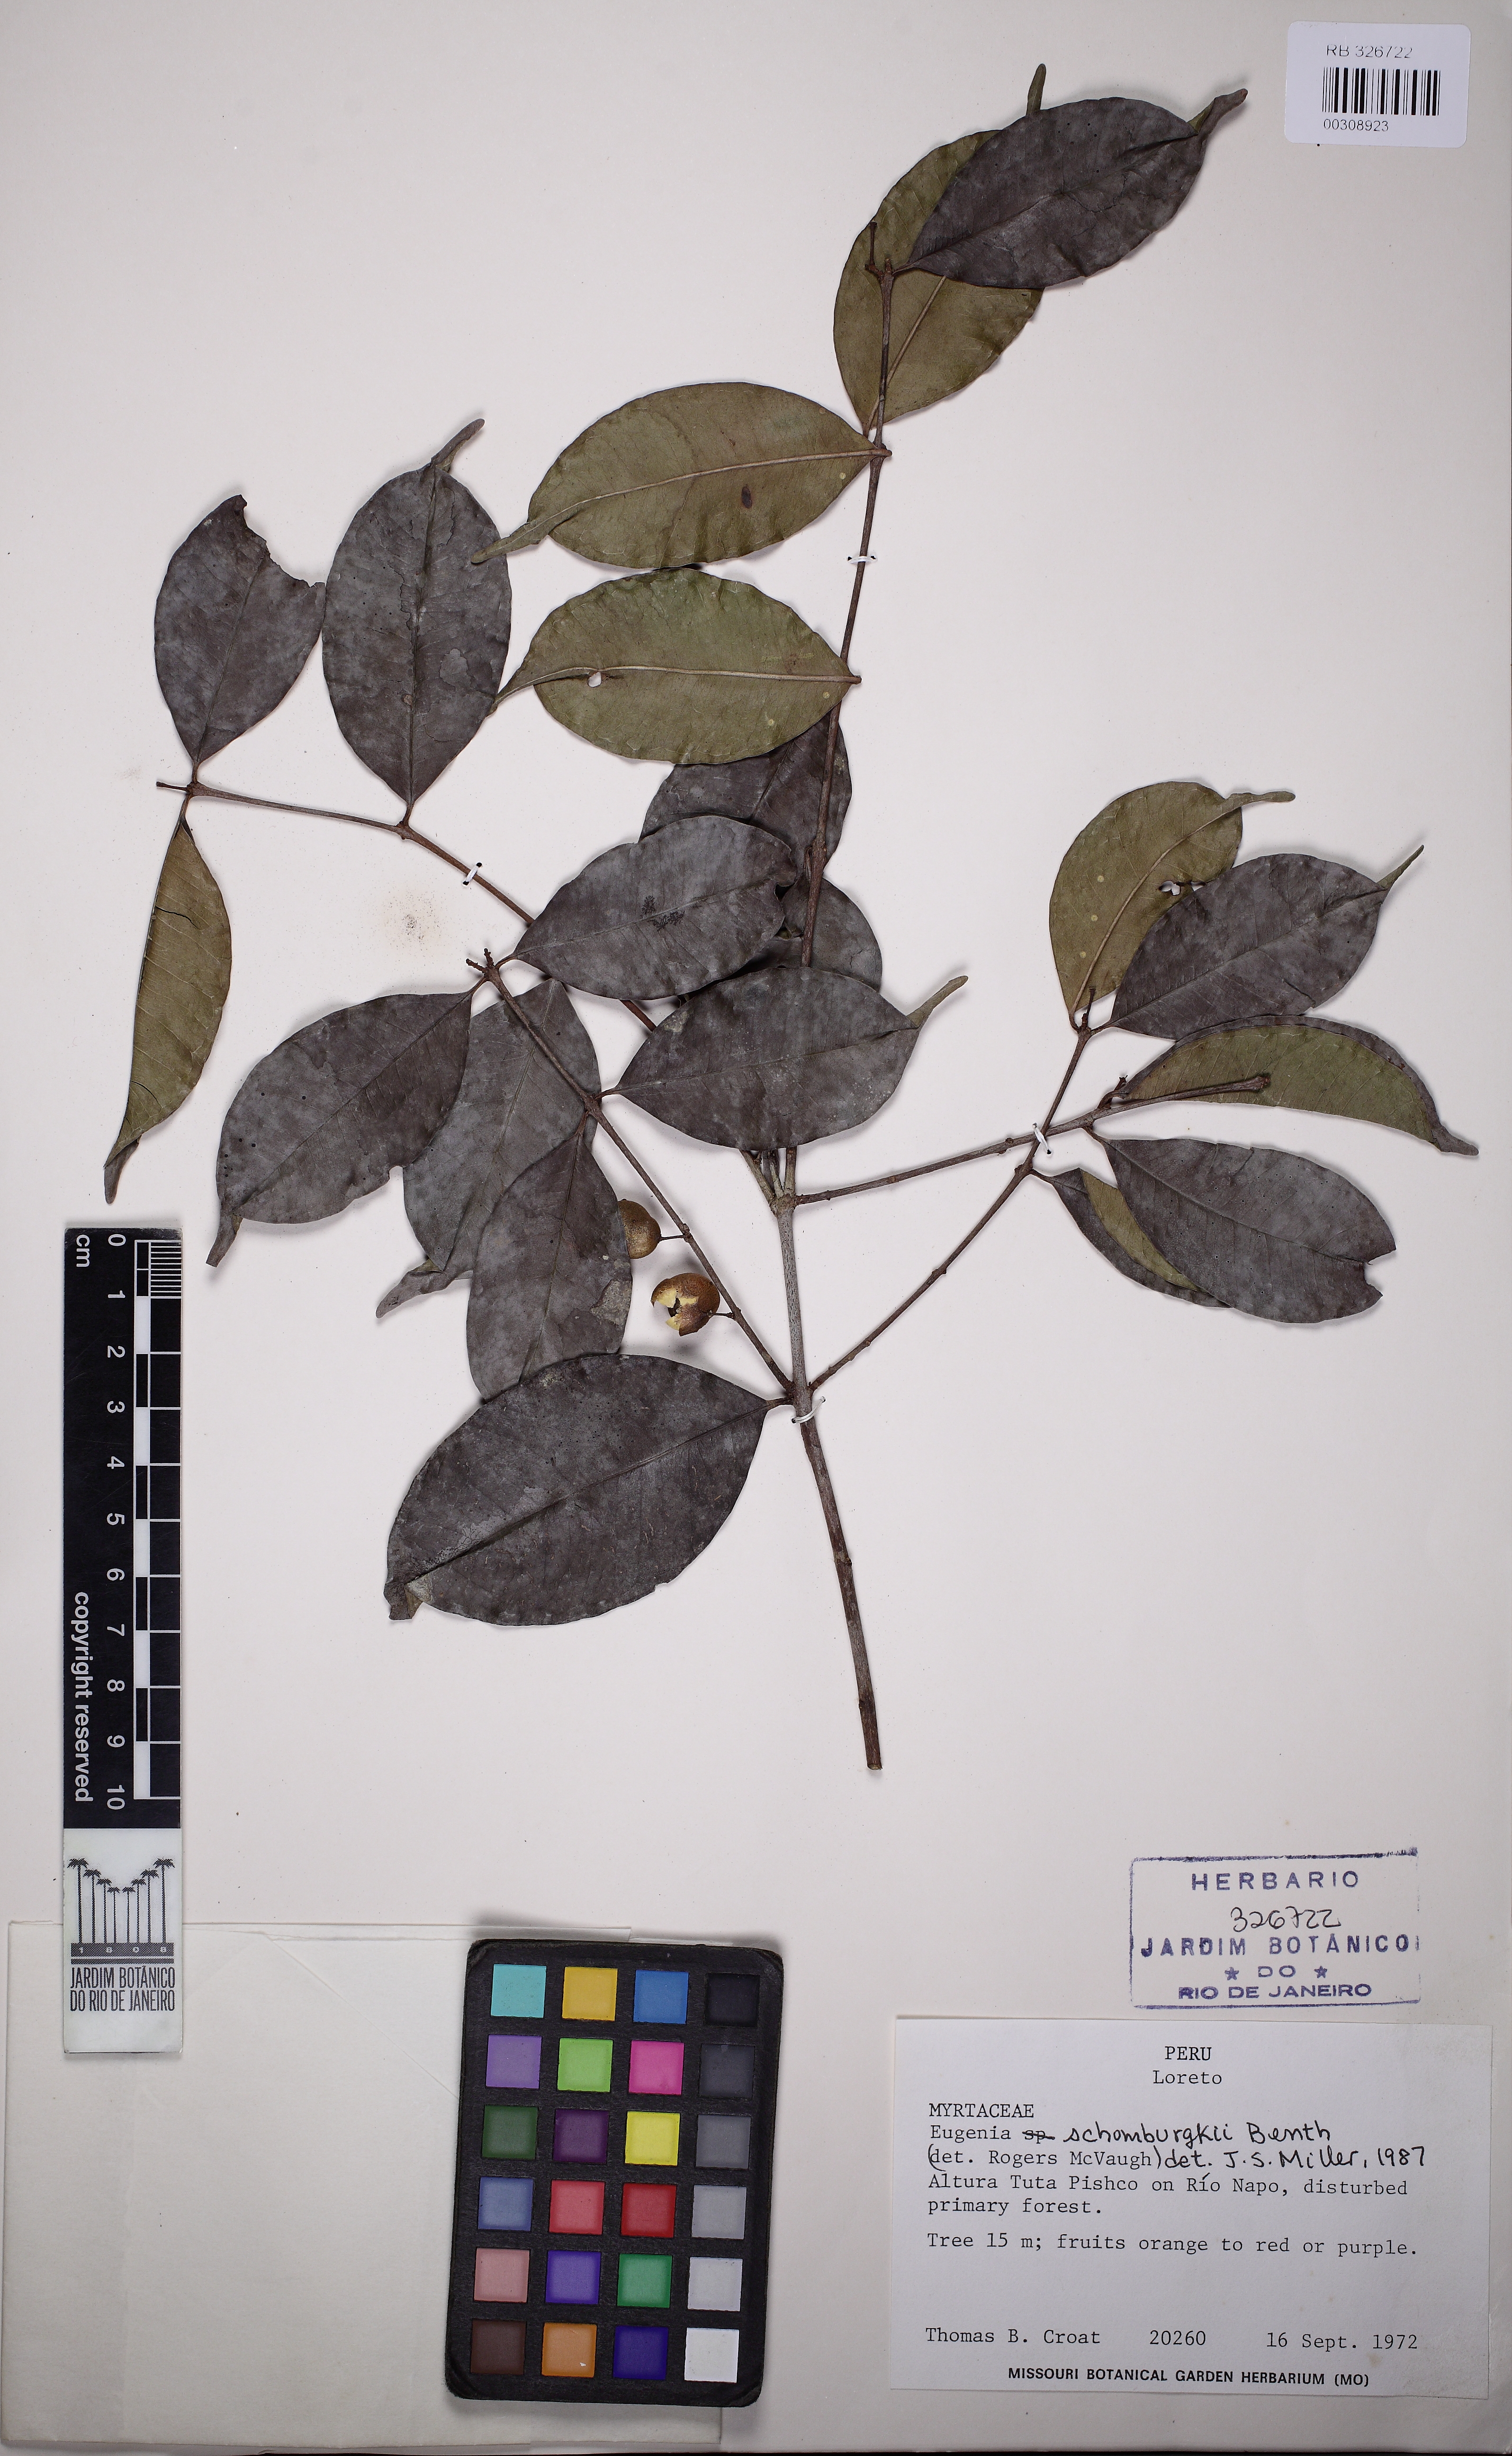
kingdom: Plantae
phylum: Tracheophyta
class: Magnoliopsida
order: Myrtales
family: Myrtaceae
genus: Eugenia
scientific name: Eugenia
